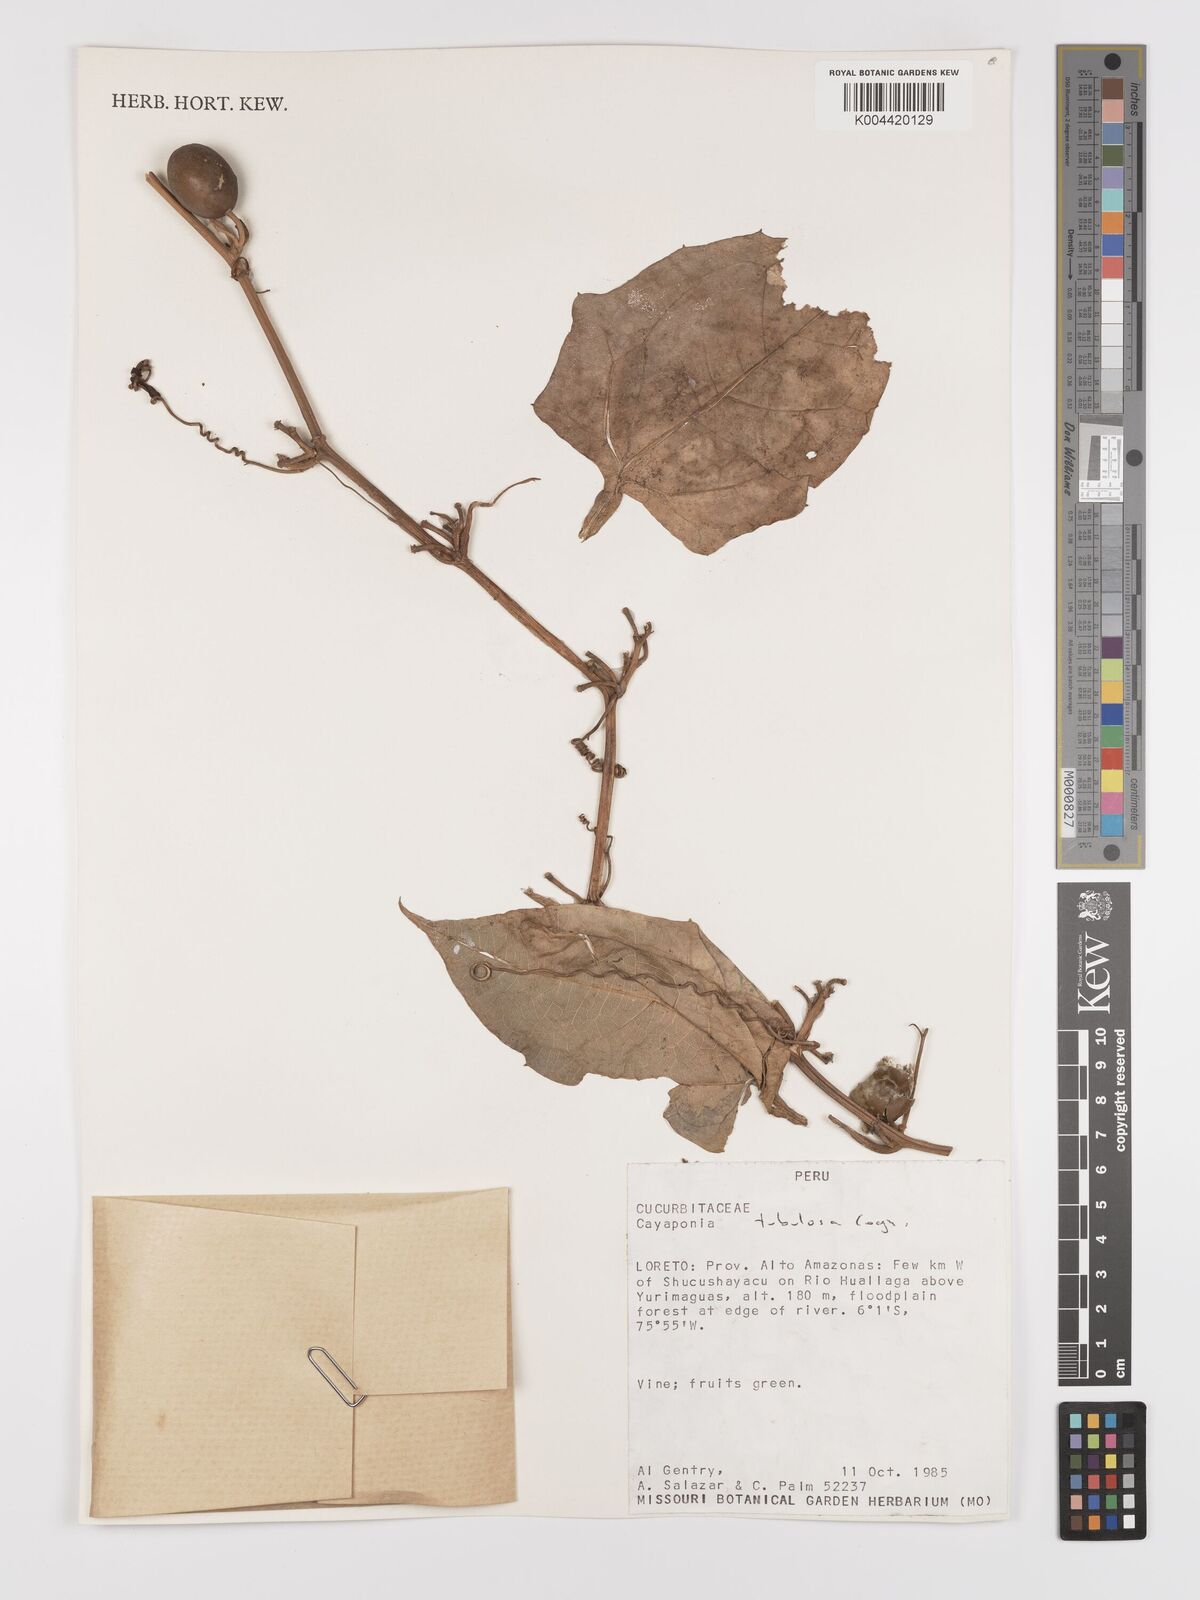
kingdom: Plantae
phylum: Tracheophyta
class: Magnoliopsida
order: Cucurbitales
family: Cucurbitaceae
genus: Cayaponia
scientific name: Cayaponia tubulosa
